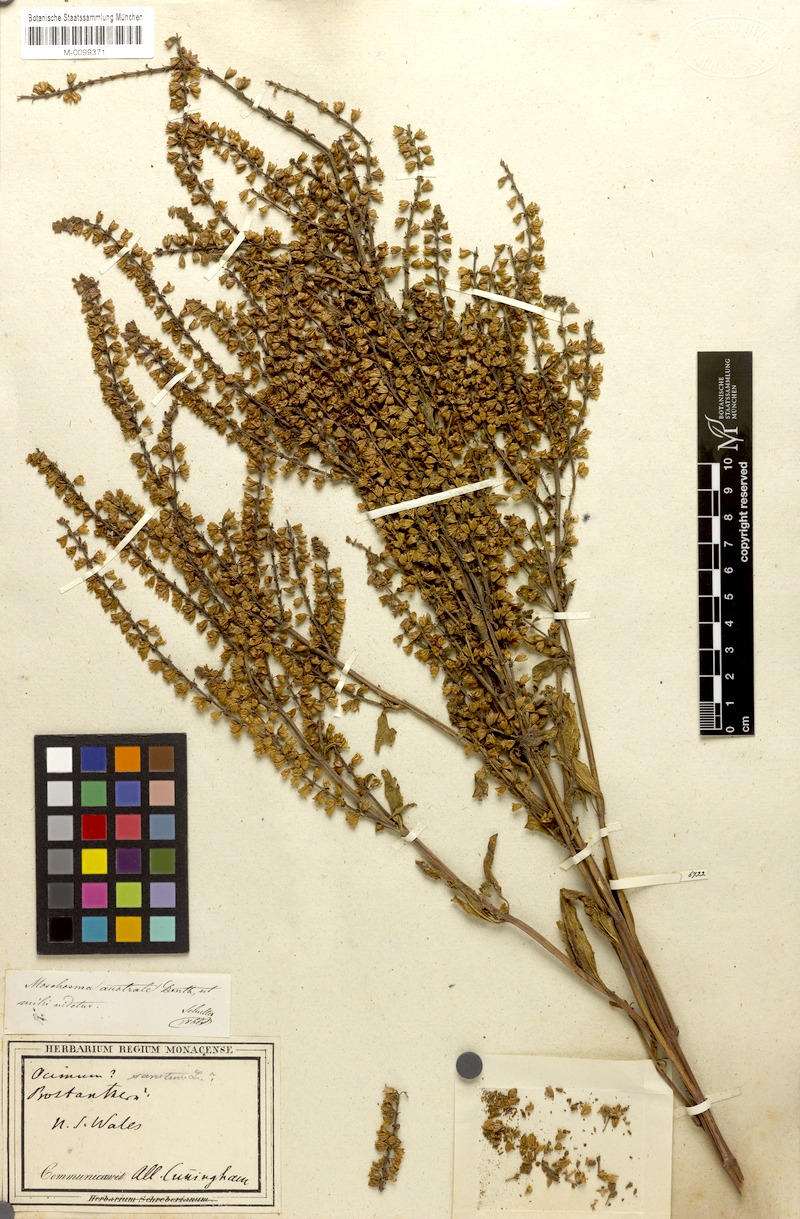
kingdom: Plantae
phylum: Tracheophyta
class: Magnoliopsida
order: Lamiales
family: Lamiaceae
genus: Coleus
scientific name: Coleus australis
